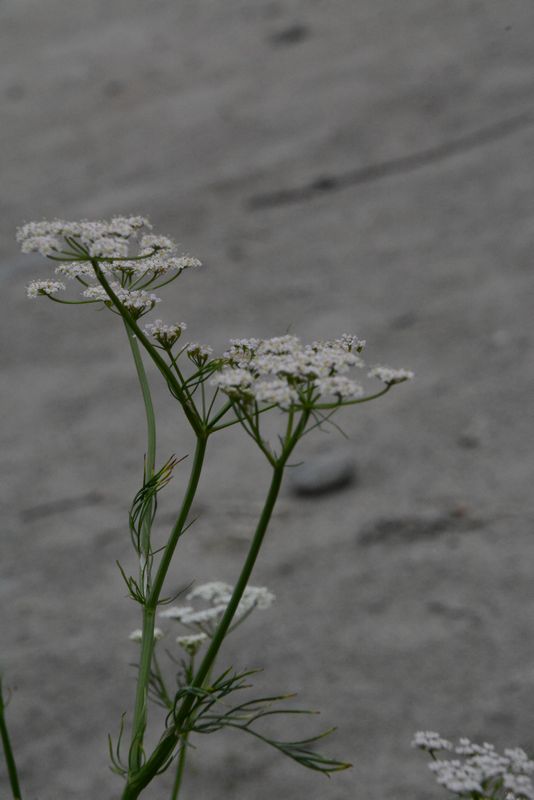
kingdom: Plantae
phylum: Tracheophyta
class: Magnoliopsida
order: Apiales
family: Apiaceae
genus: Carum
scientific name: Carum carvi
